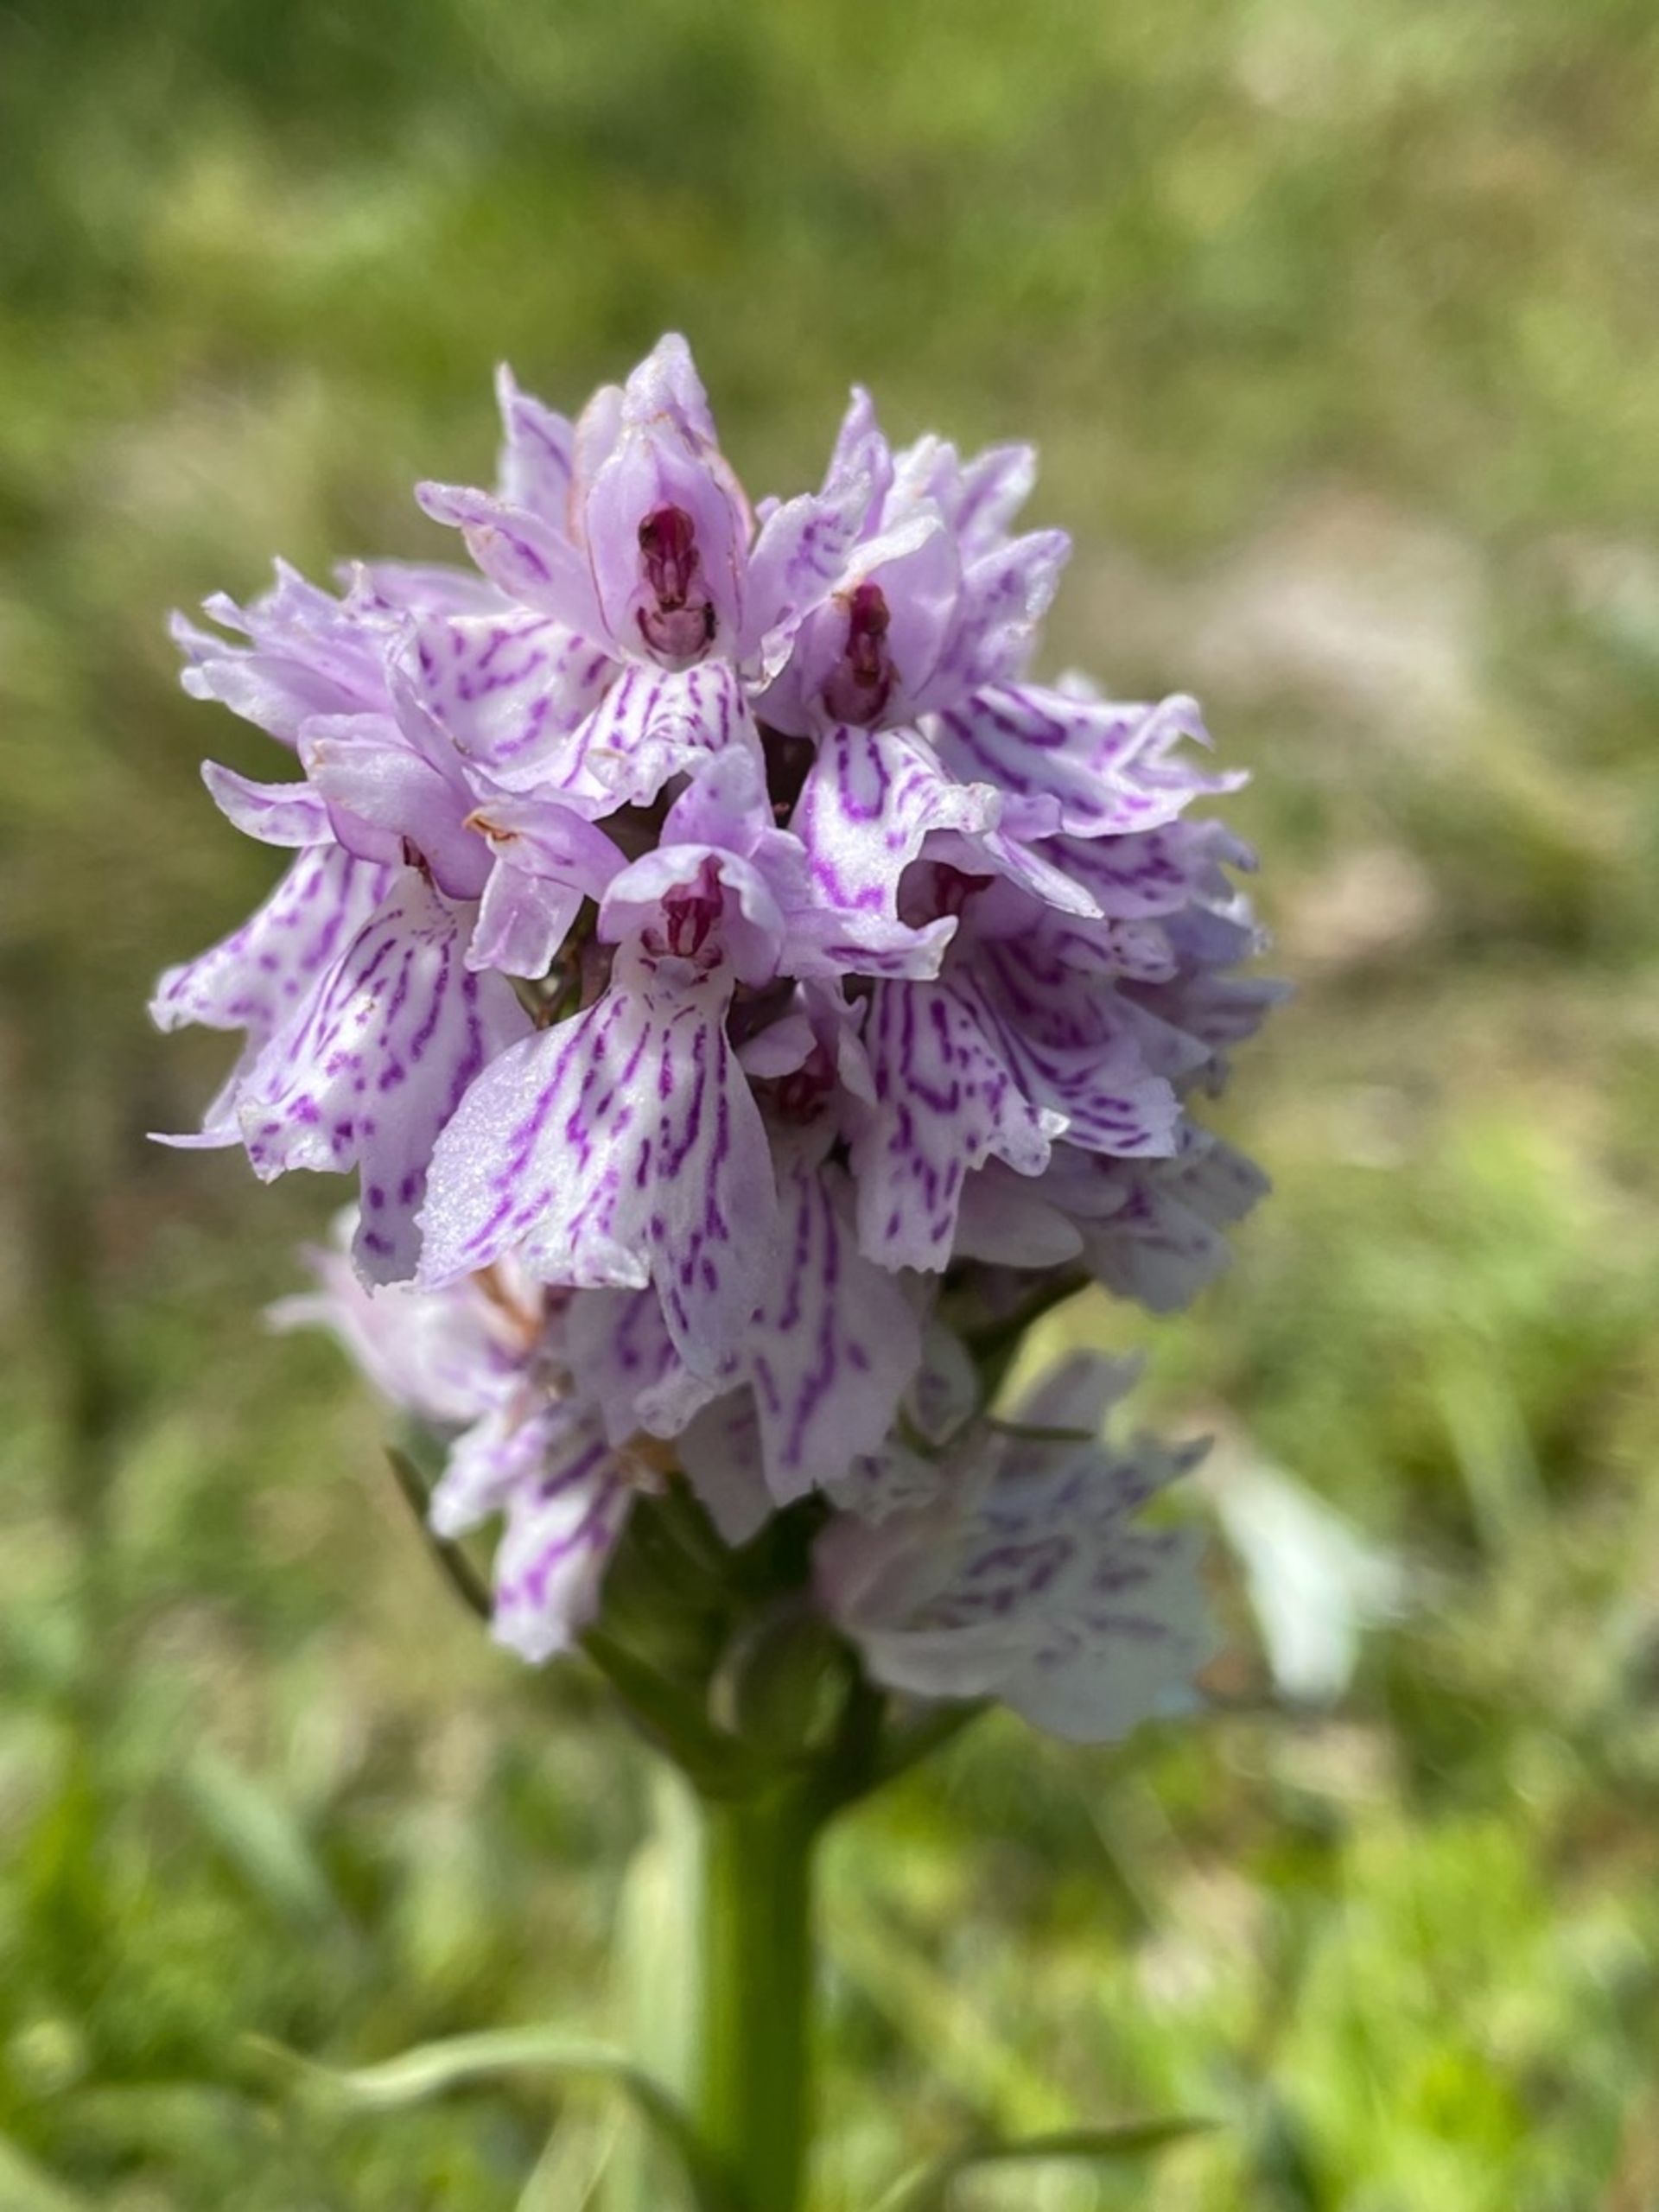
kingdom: Plantae
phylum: Tracheophyta
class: Liliopsida
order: Asparagales
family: Orchidaceae
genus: Dactylorhiza
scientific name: Dactylorhiza maculata
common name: Plettet gøgeurt
